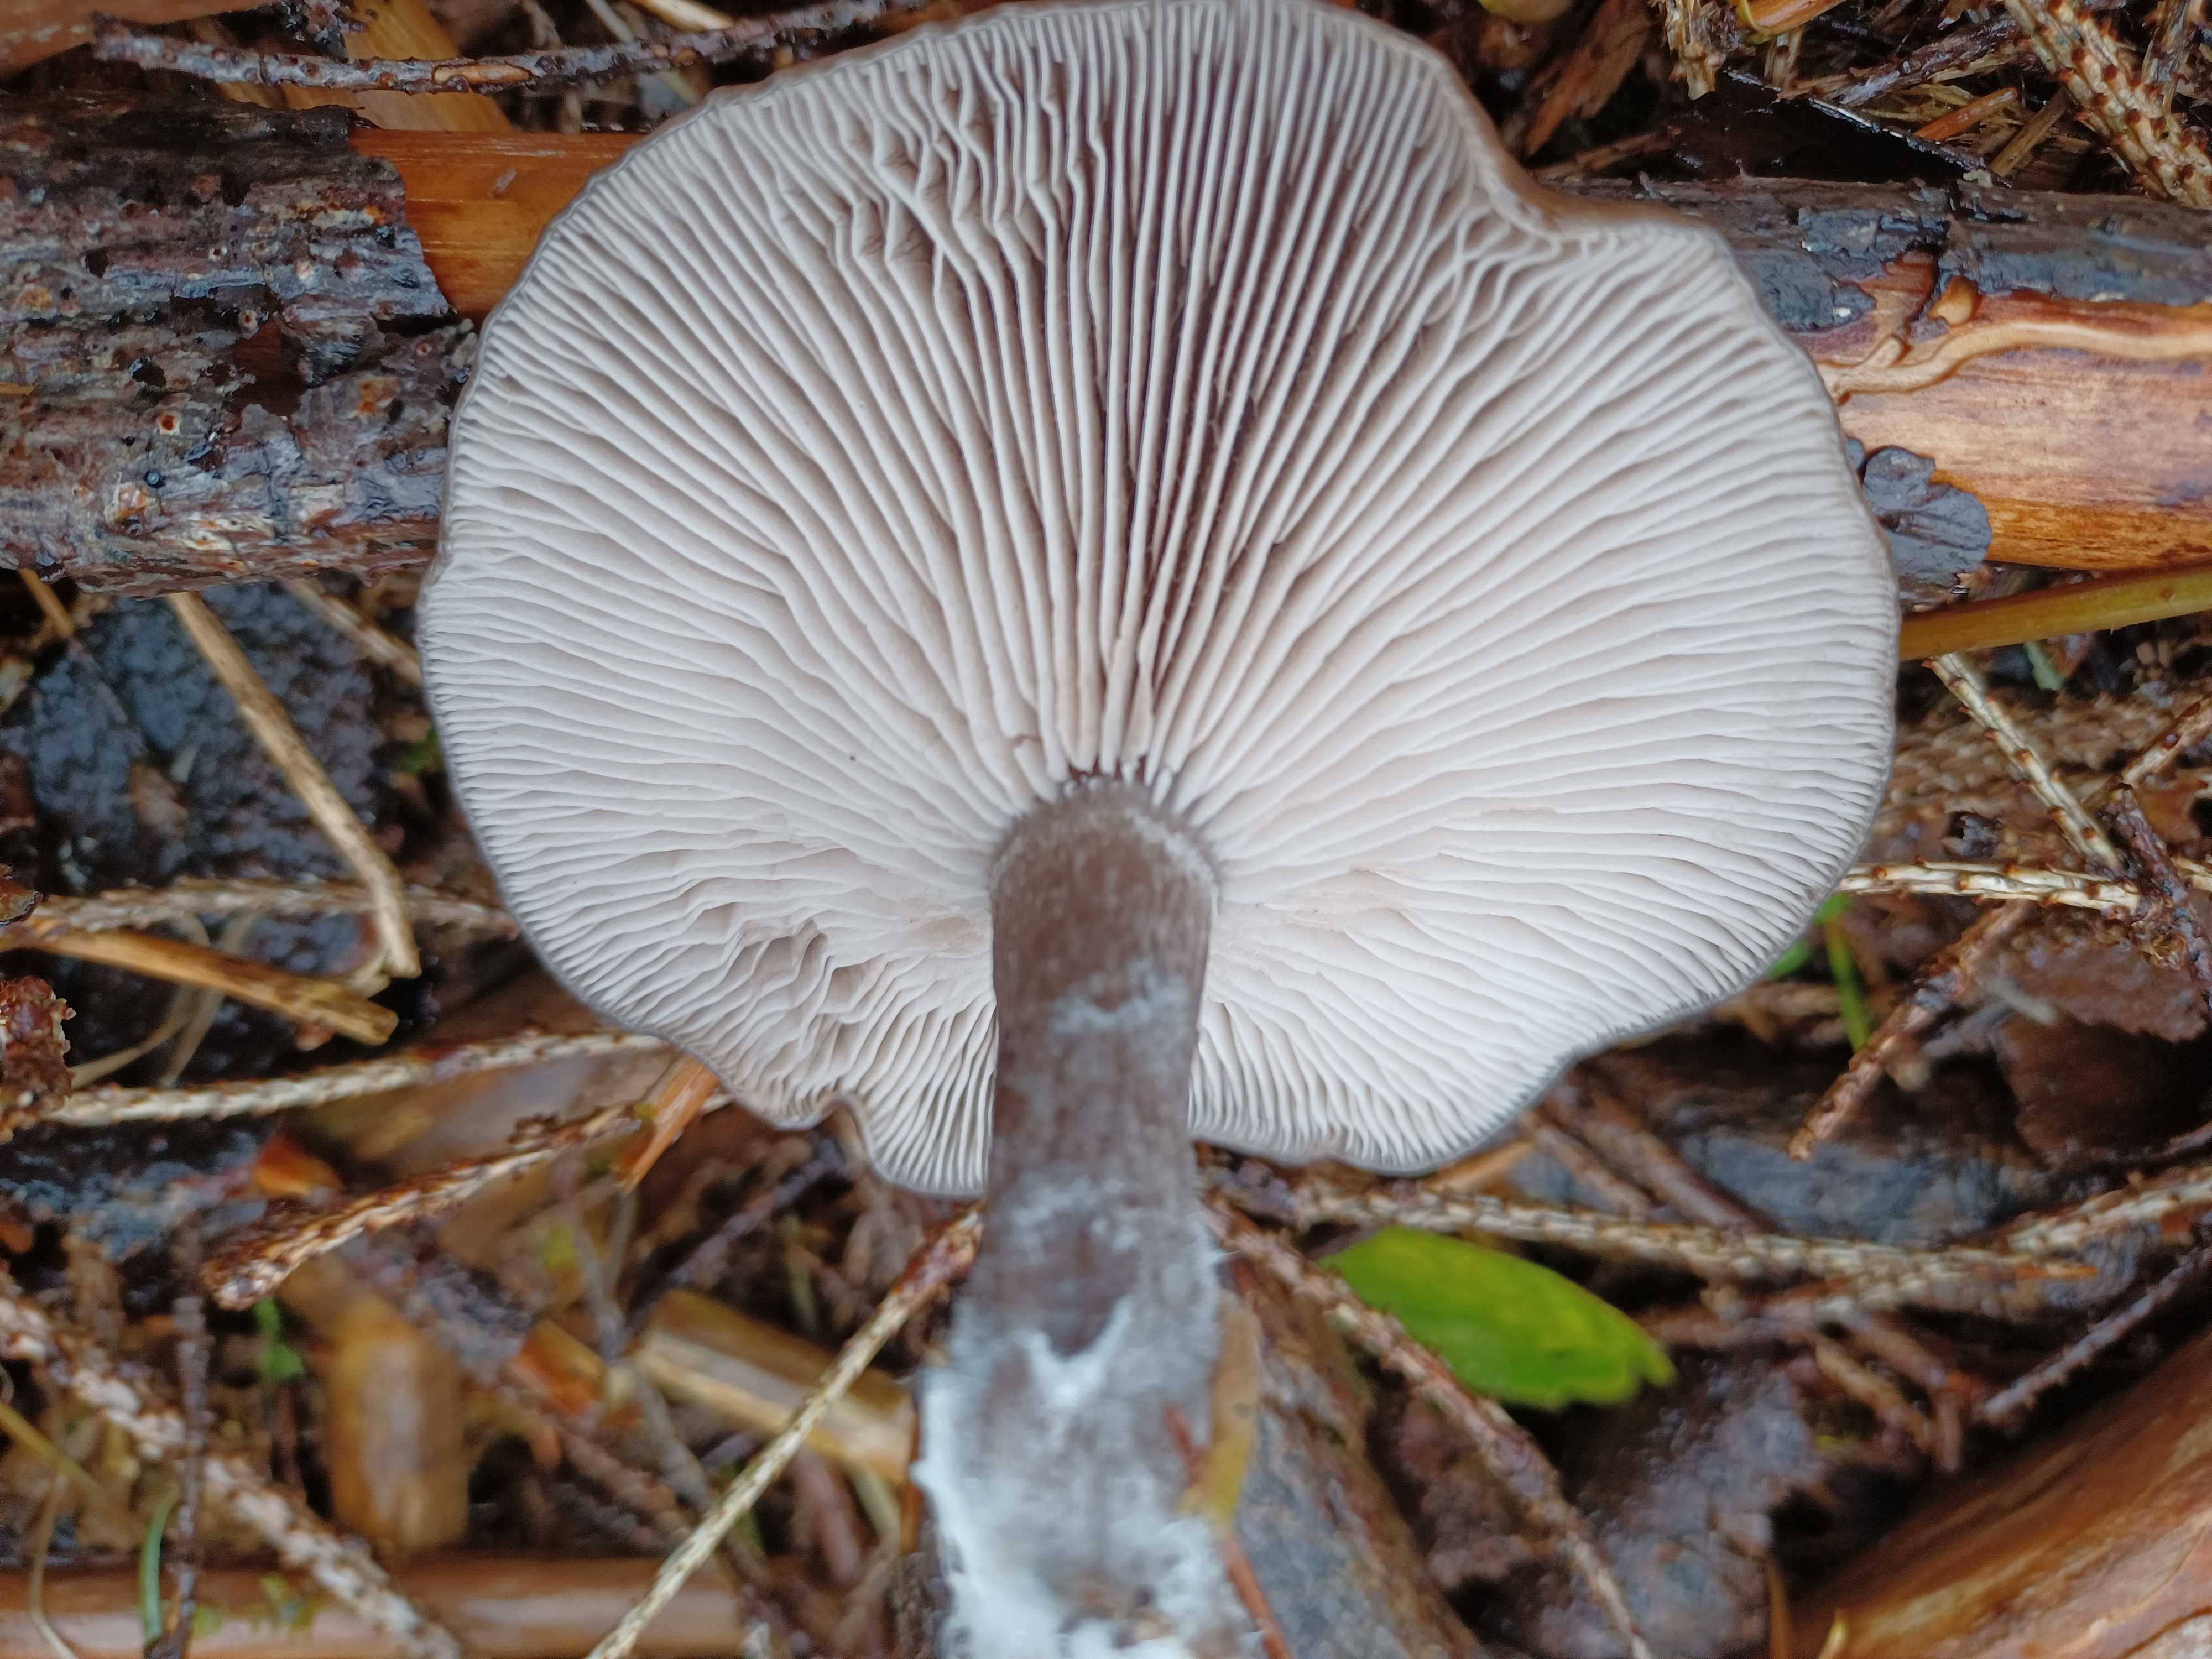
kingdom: Fungi
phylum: Basidiomycota
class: Agaricomycetes
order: Agaricales
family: Pseudoclitocybaceae
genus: Pseudoclitocybe
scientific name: Pseudoclitocybe cyathiformis
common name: almindelig bægertragthat
